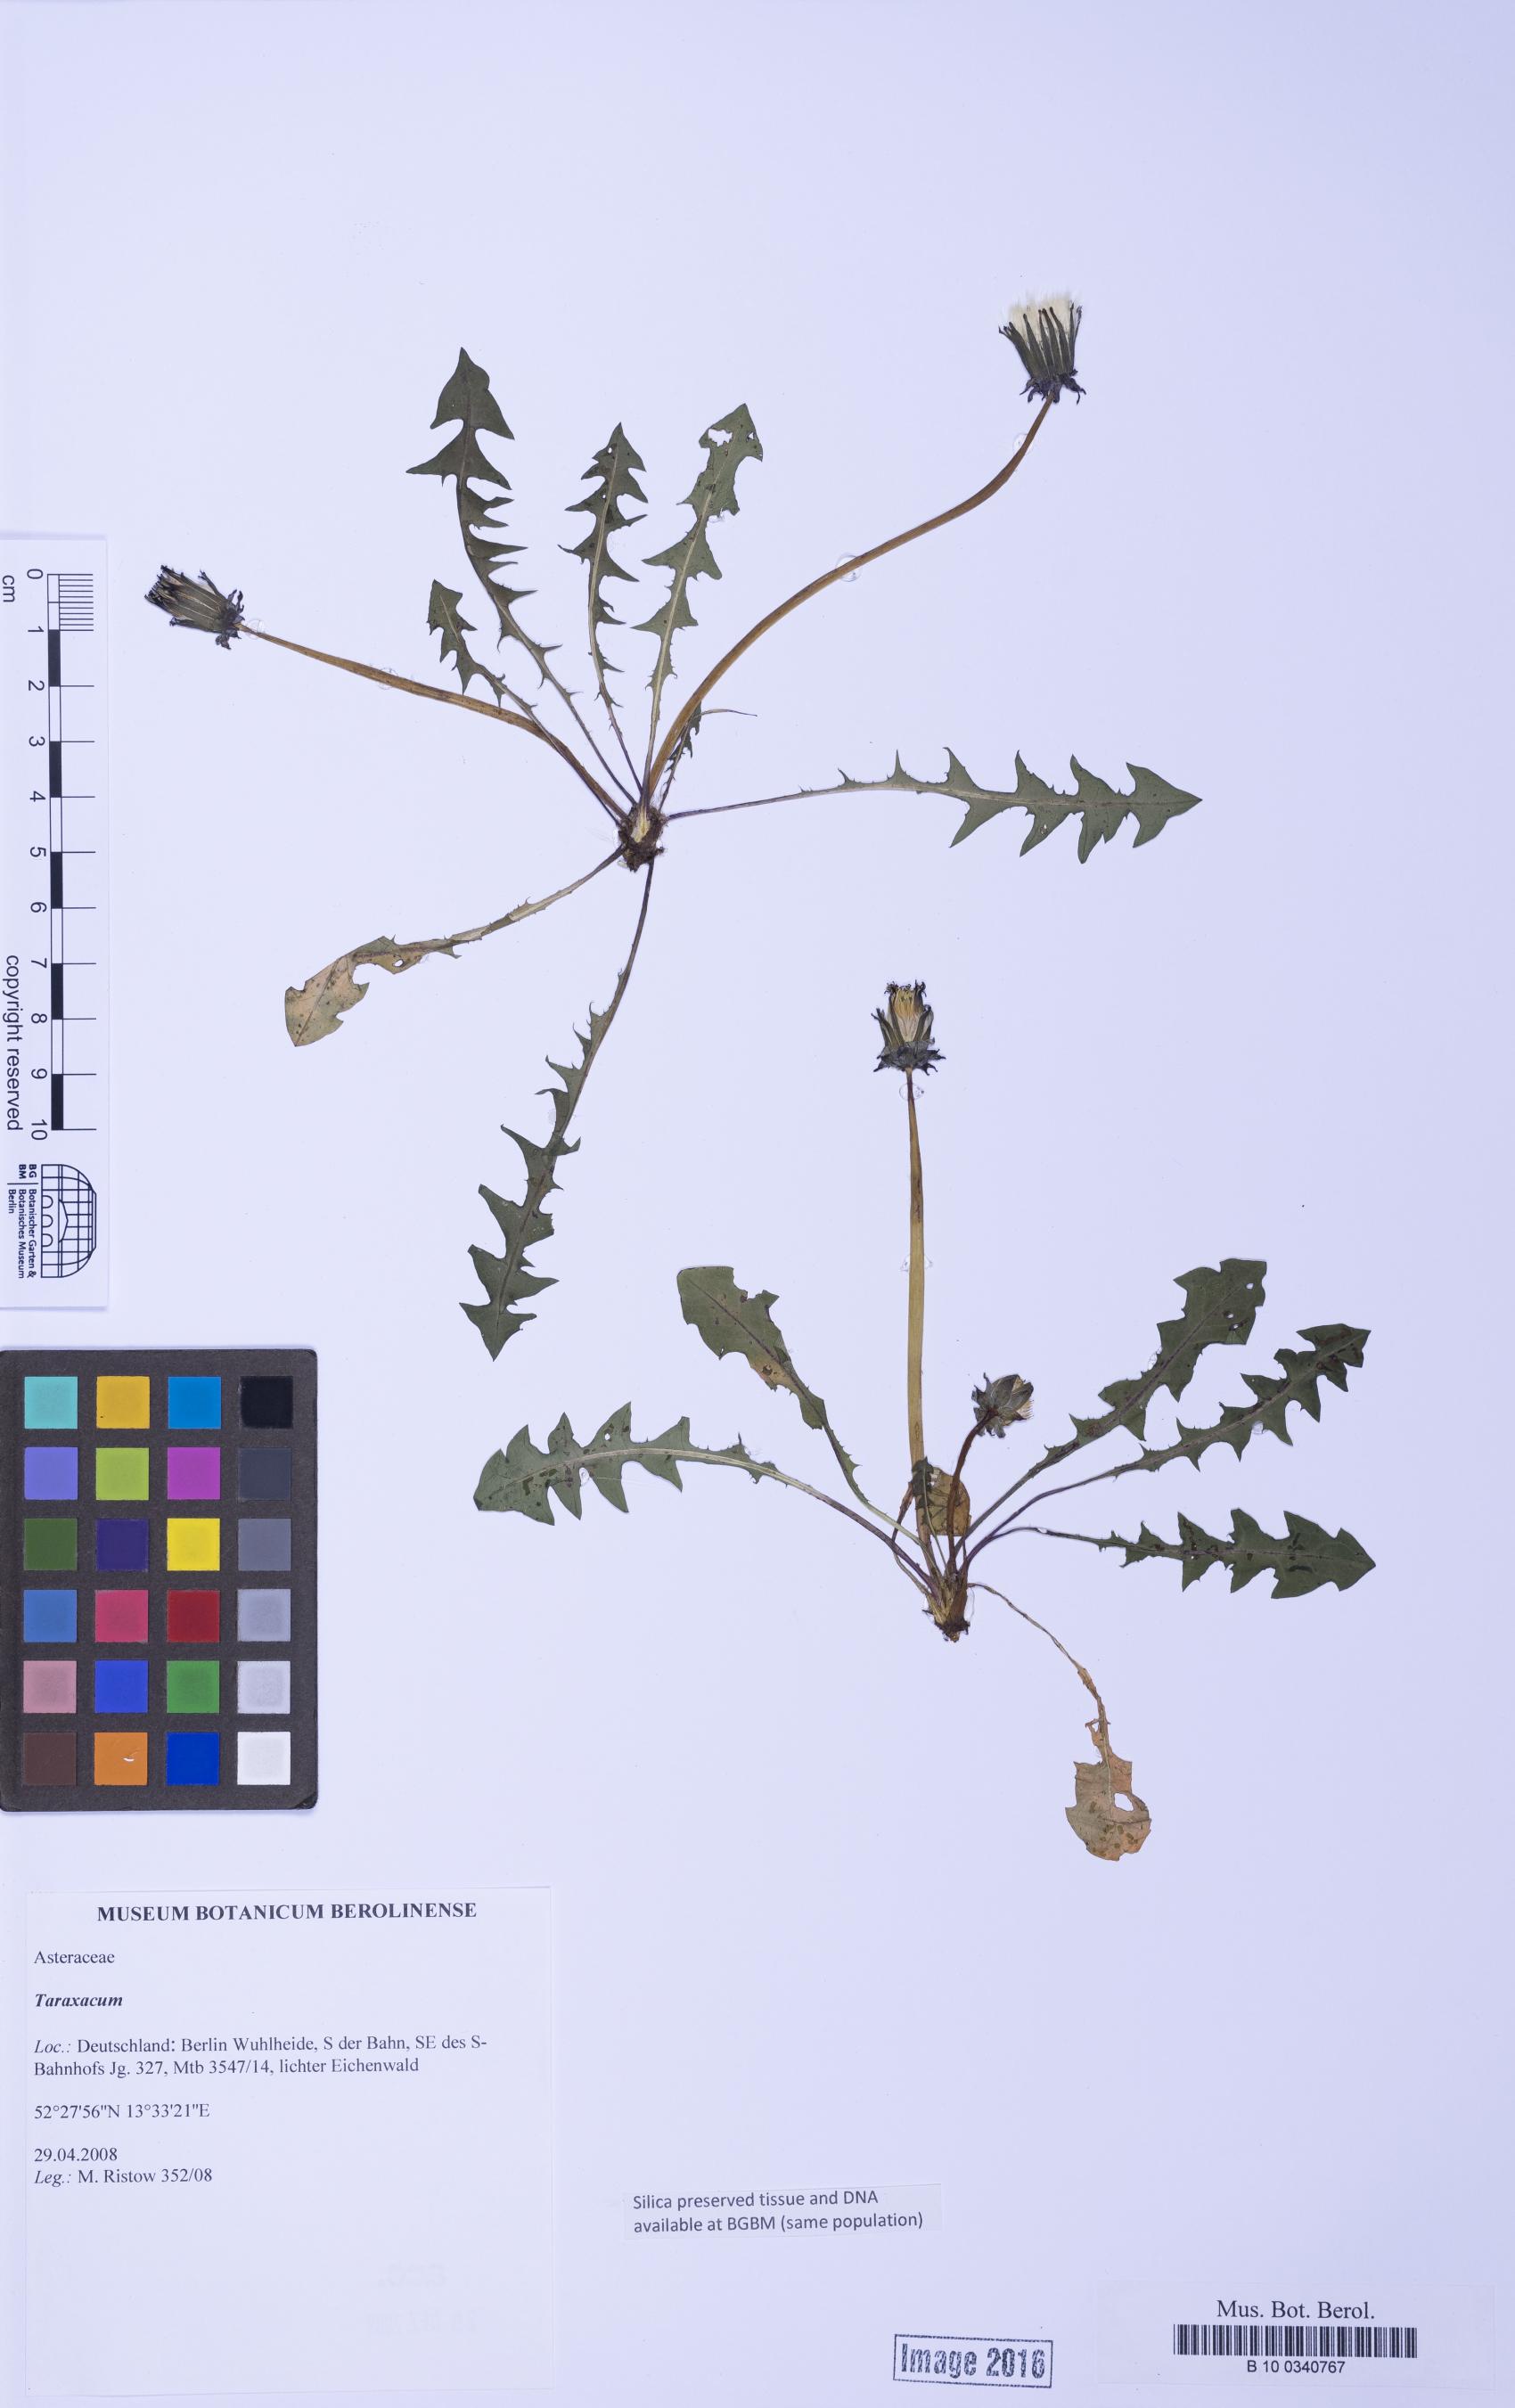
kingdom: Plantae
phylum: Tracheophyta
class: Magnoliopsida
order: Asterales
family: Asteraceae
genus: Taraxacum
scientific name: Taraxacum
